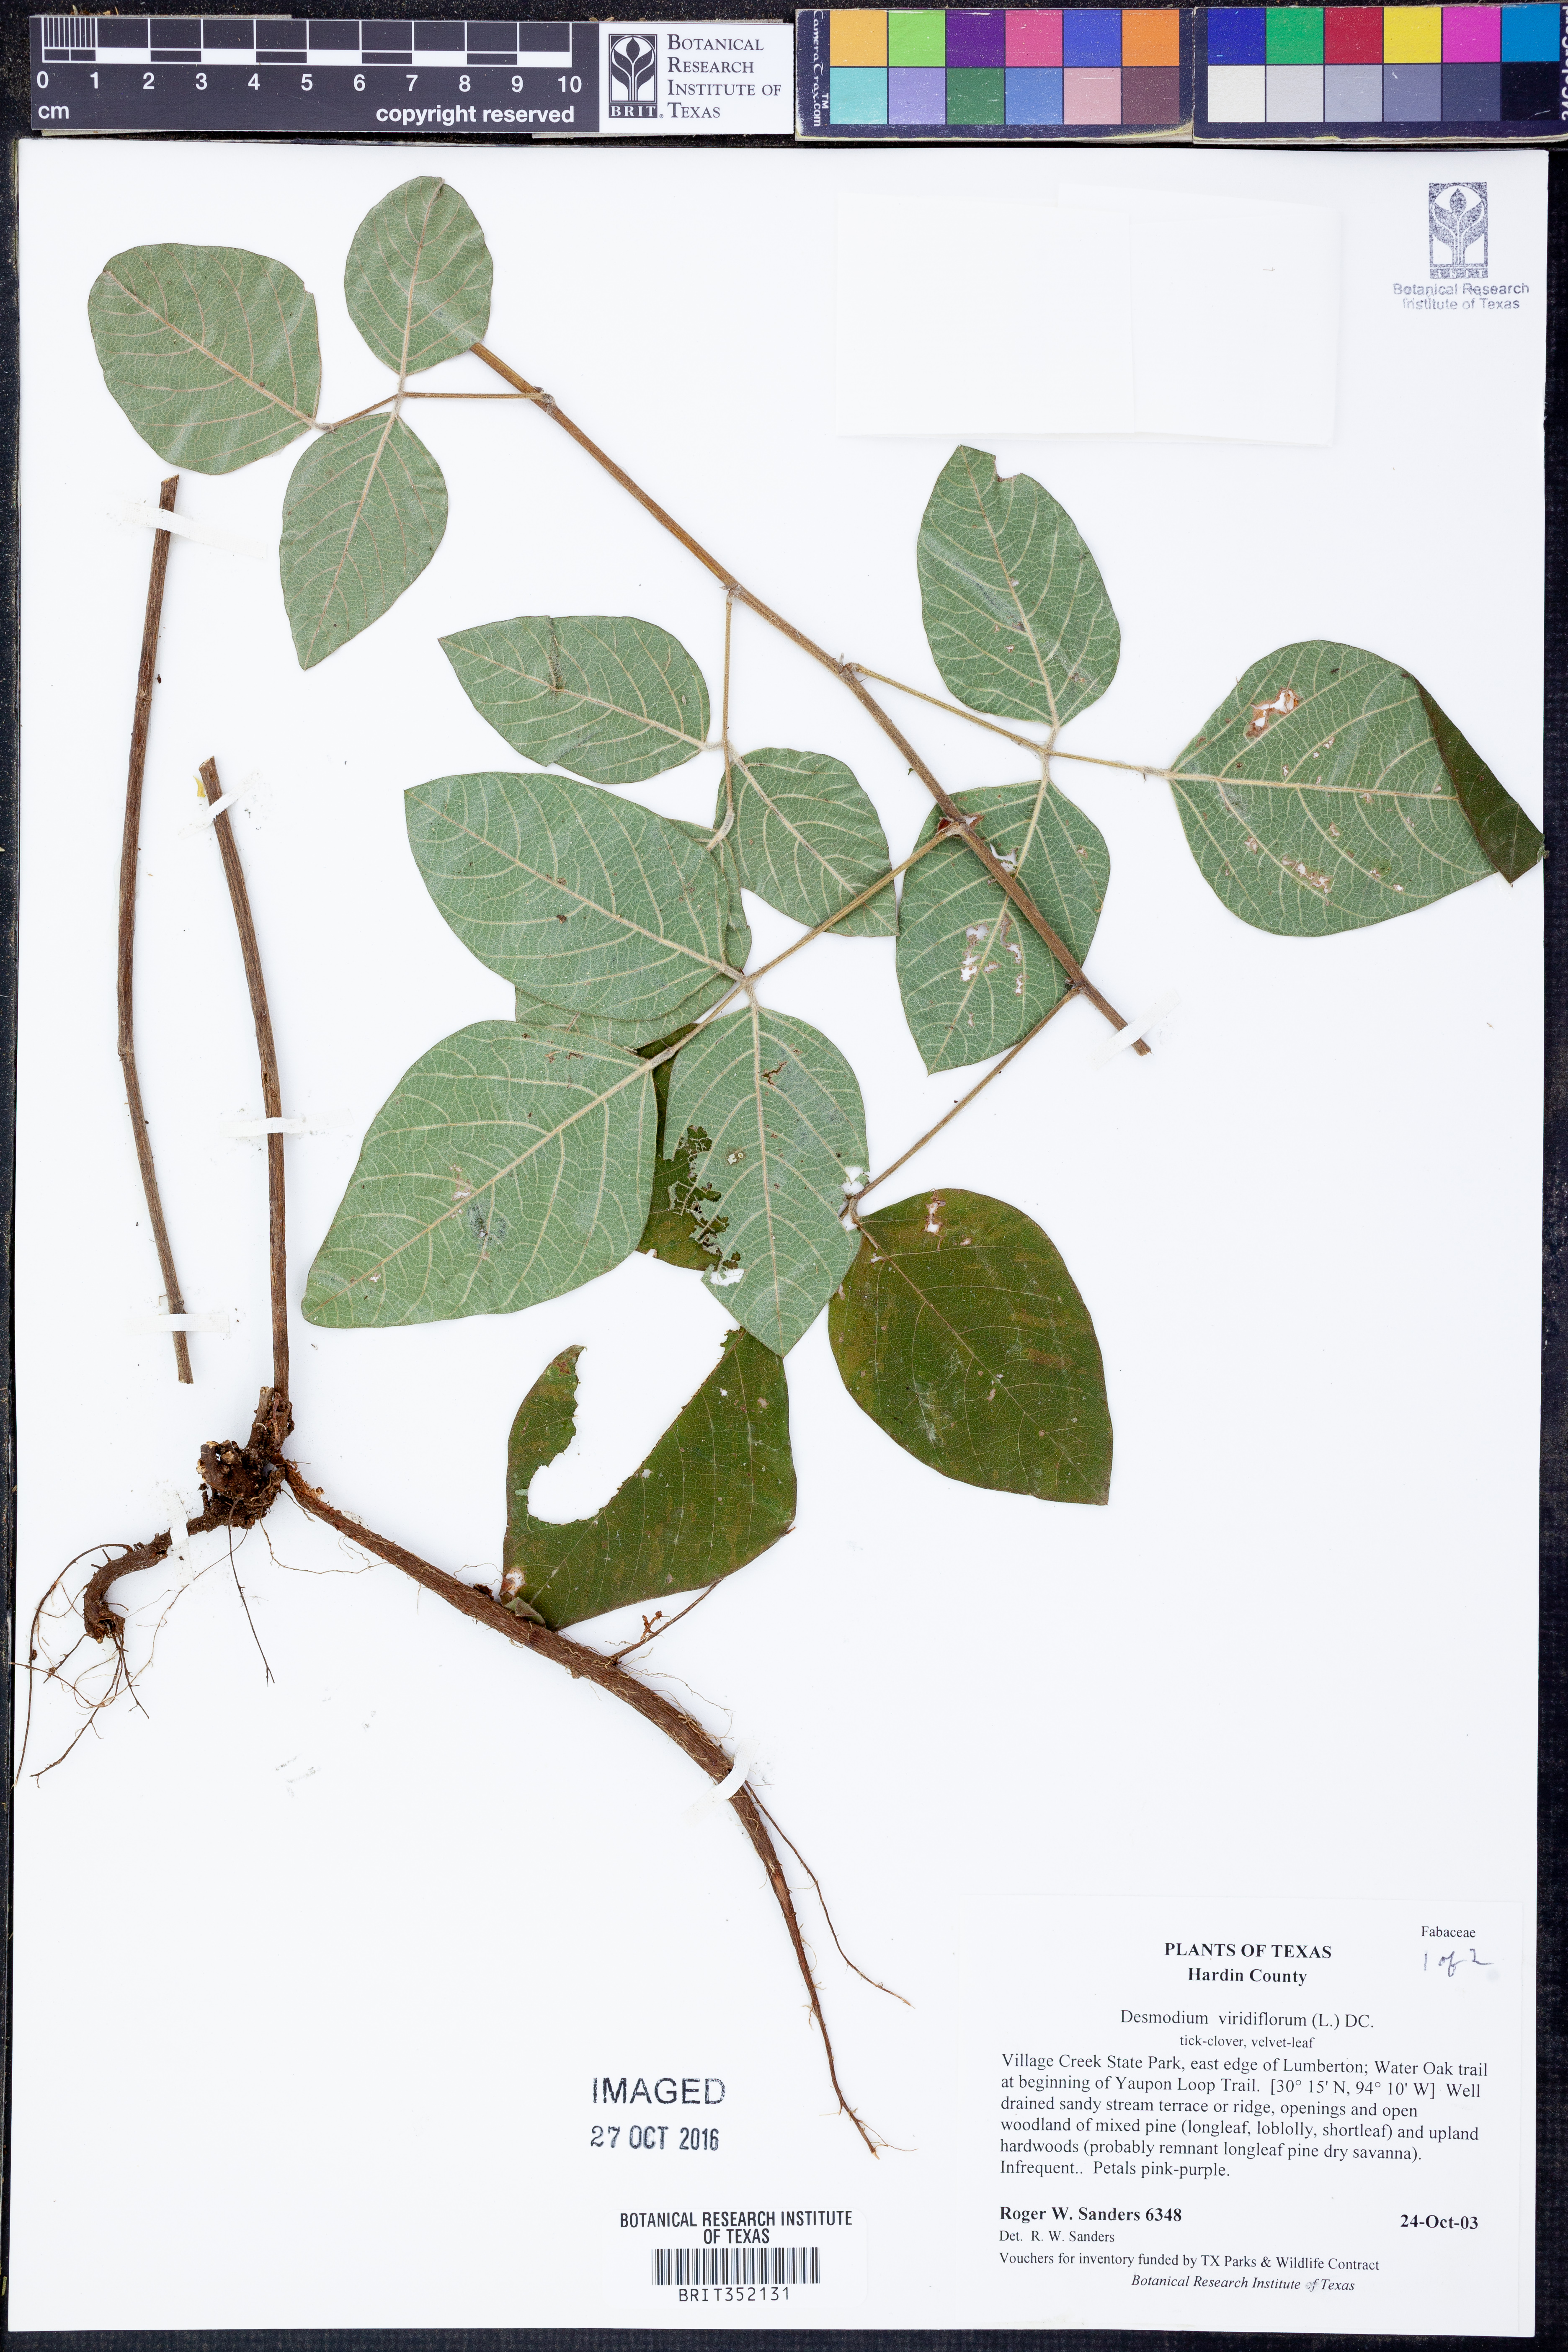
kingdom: Plantae
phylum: Tracheophyta
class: Magnoliopsida
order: Fabales
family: Fabaceae
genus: Desmodium
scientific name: Desmodium viridiflorum
